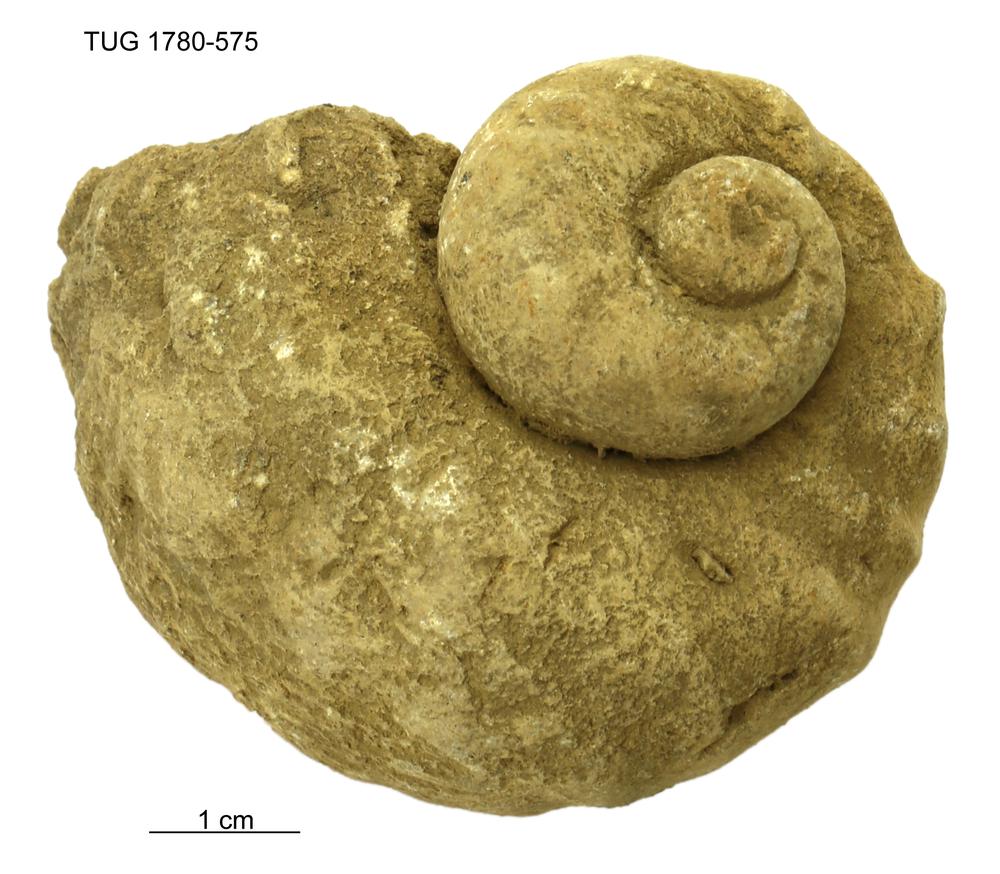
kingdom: Animalia
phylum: Mollusca
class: Gastropoda
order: Littorinimorpha
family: Naticidae
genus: Natica
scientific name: Natica
